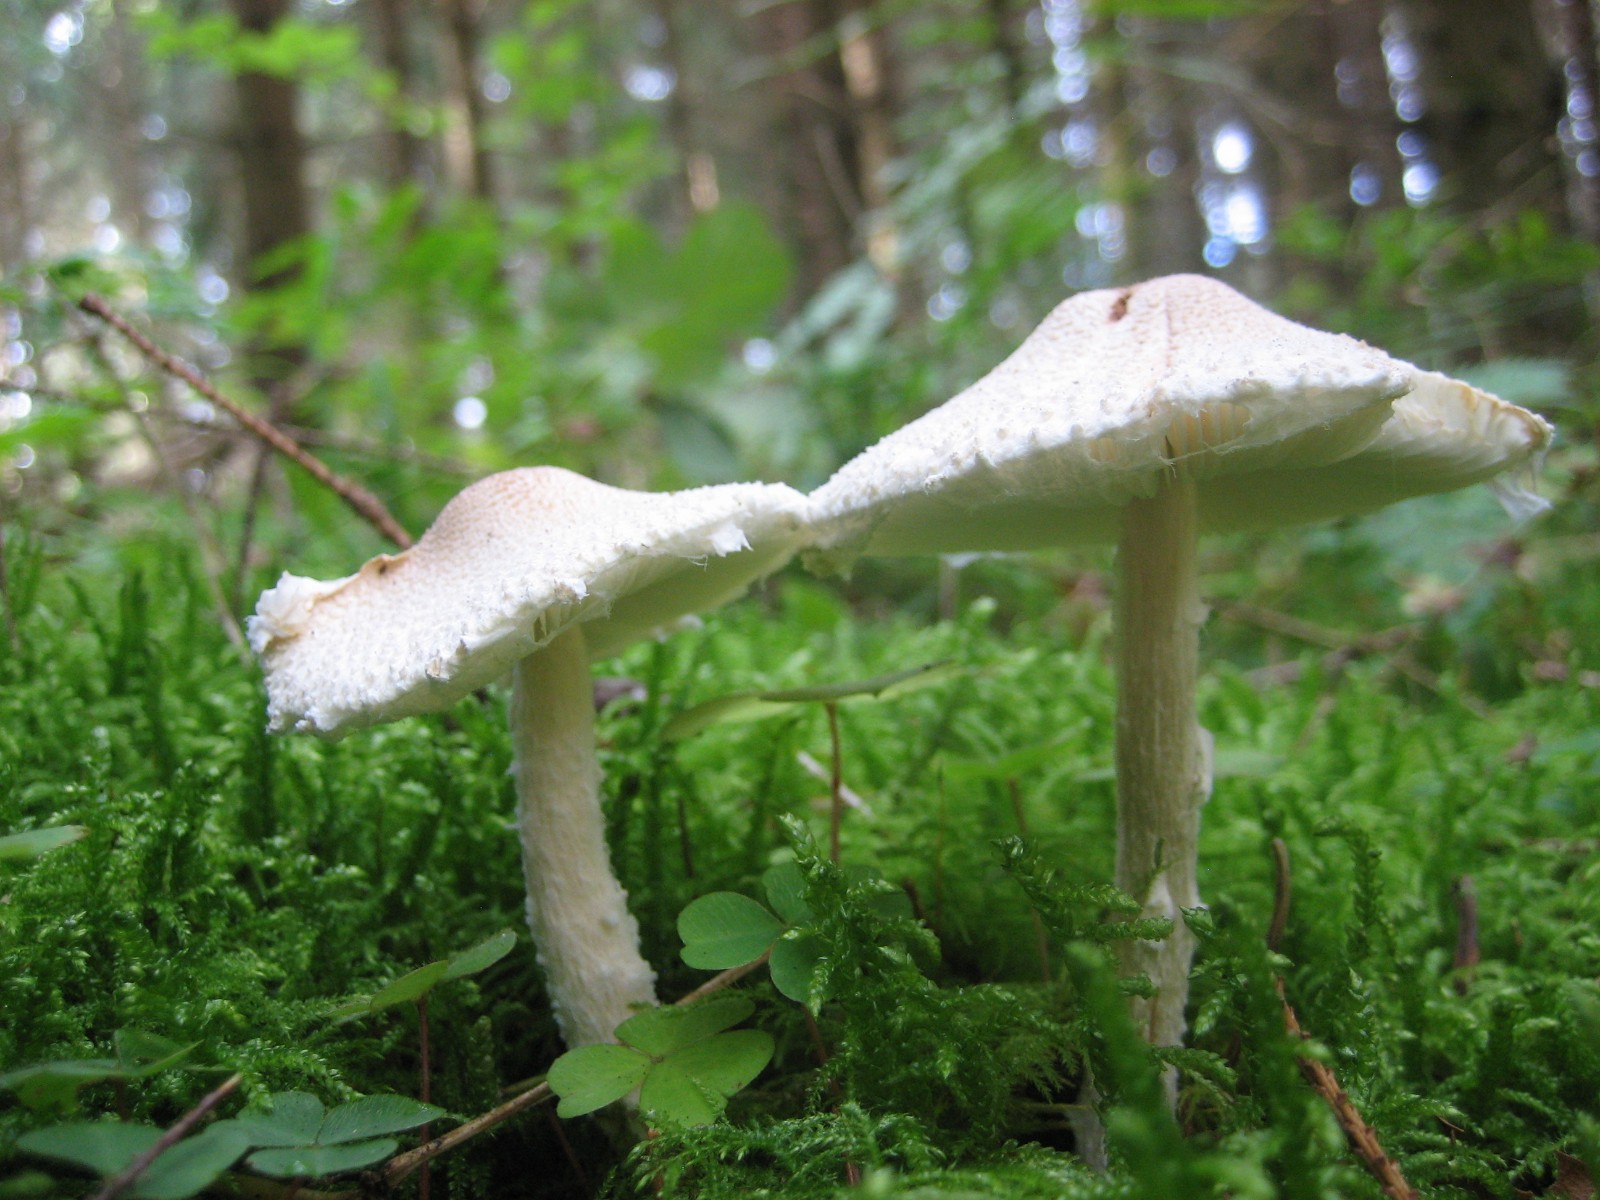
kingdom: Fungi
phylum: Basidiomycota
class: Agaricomycetes
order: Agaricales
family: Agaricaceae
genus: Lepiota
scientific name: Lepiota clypeolaria
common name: flosset parasolhat
